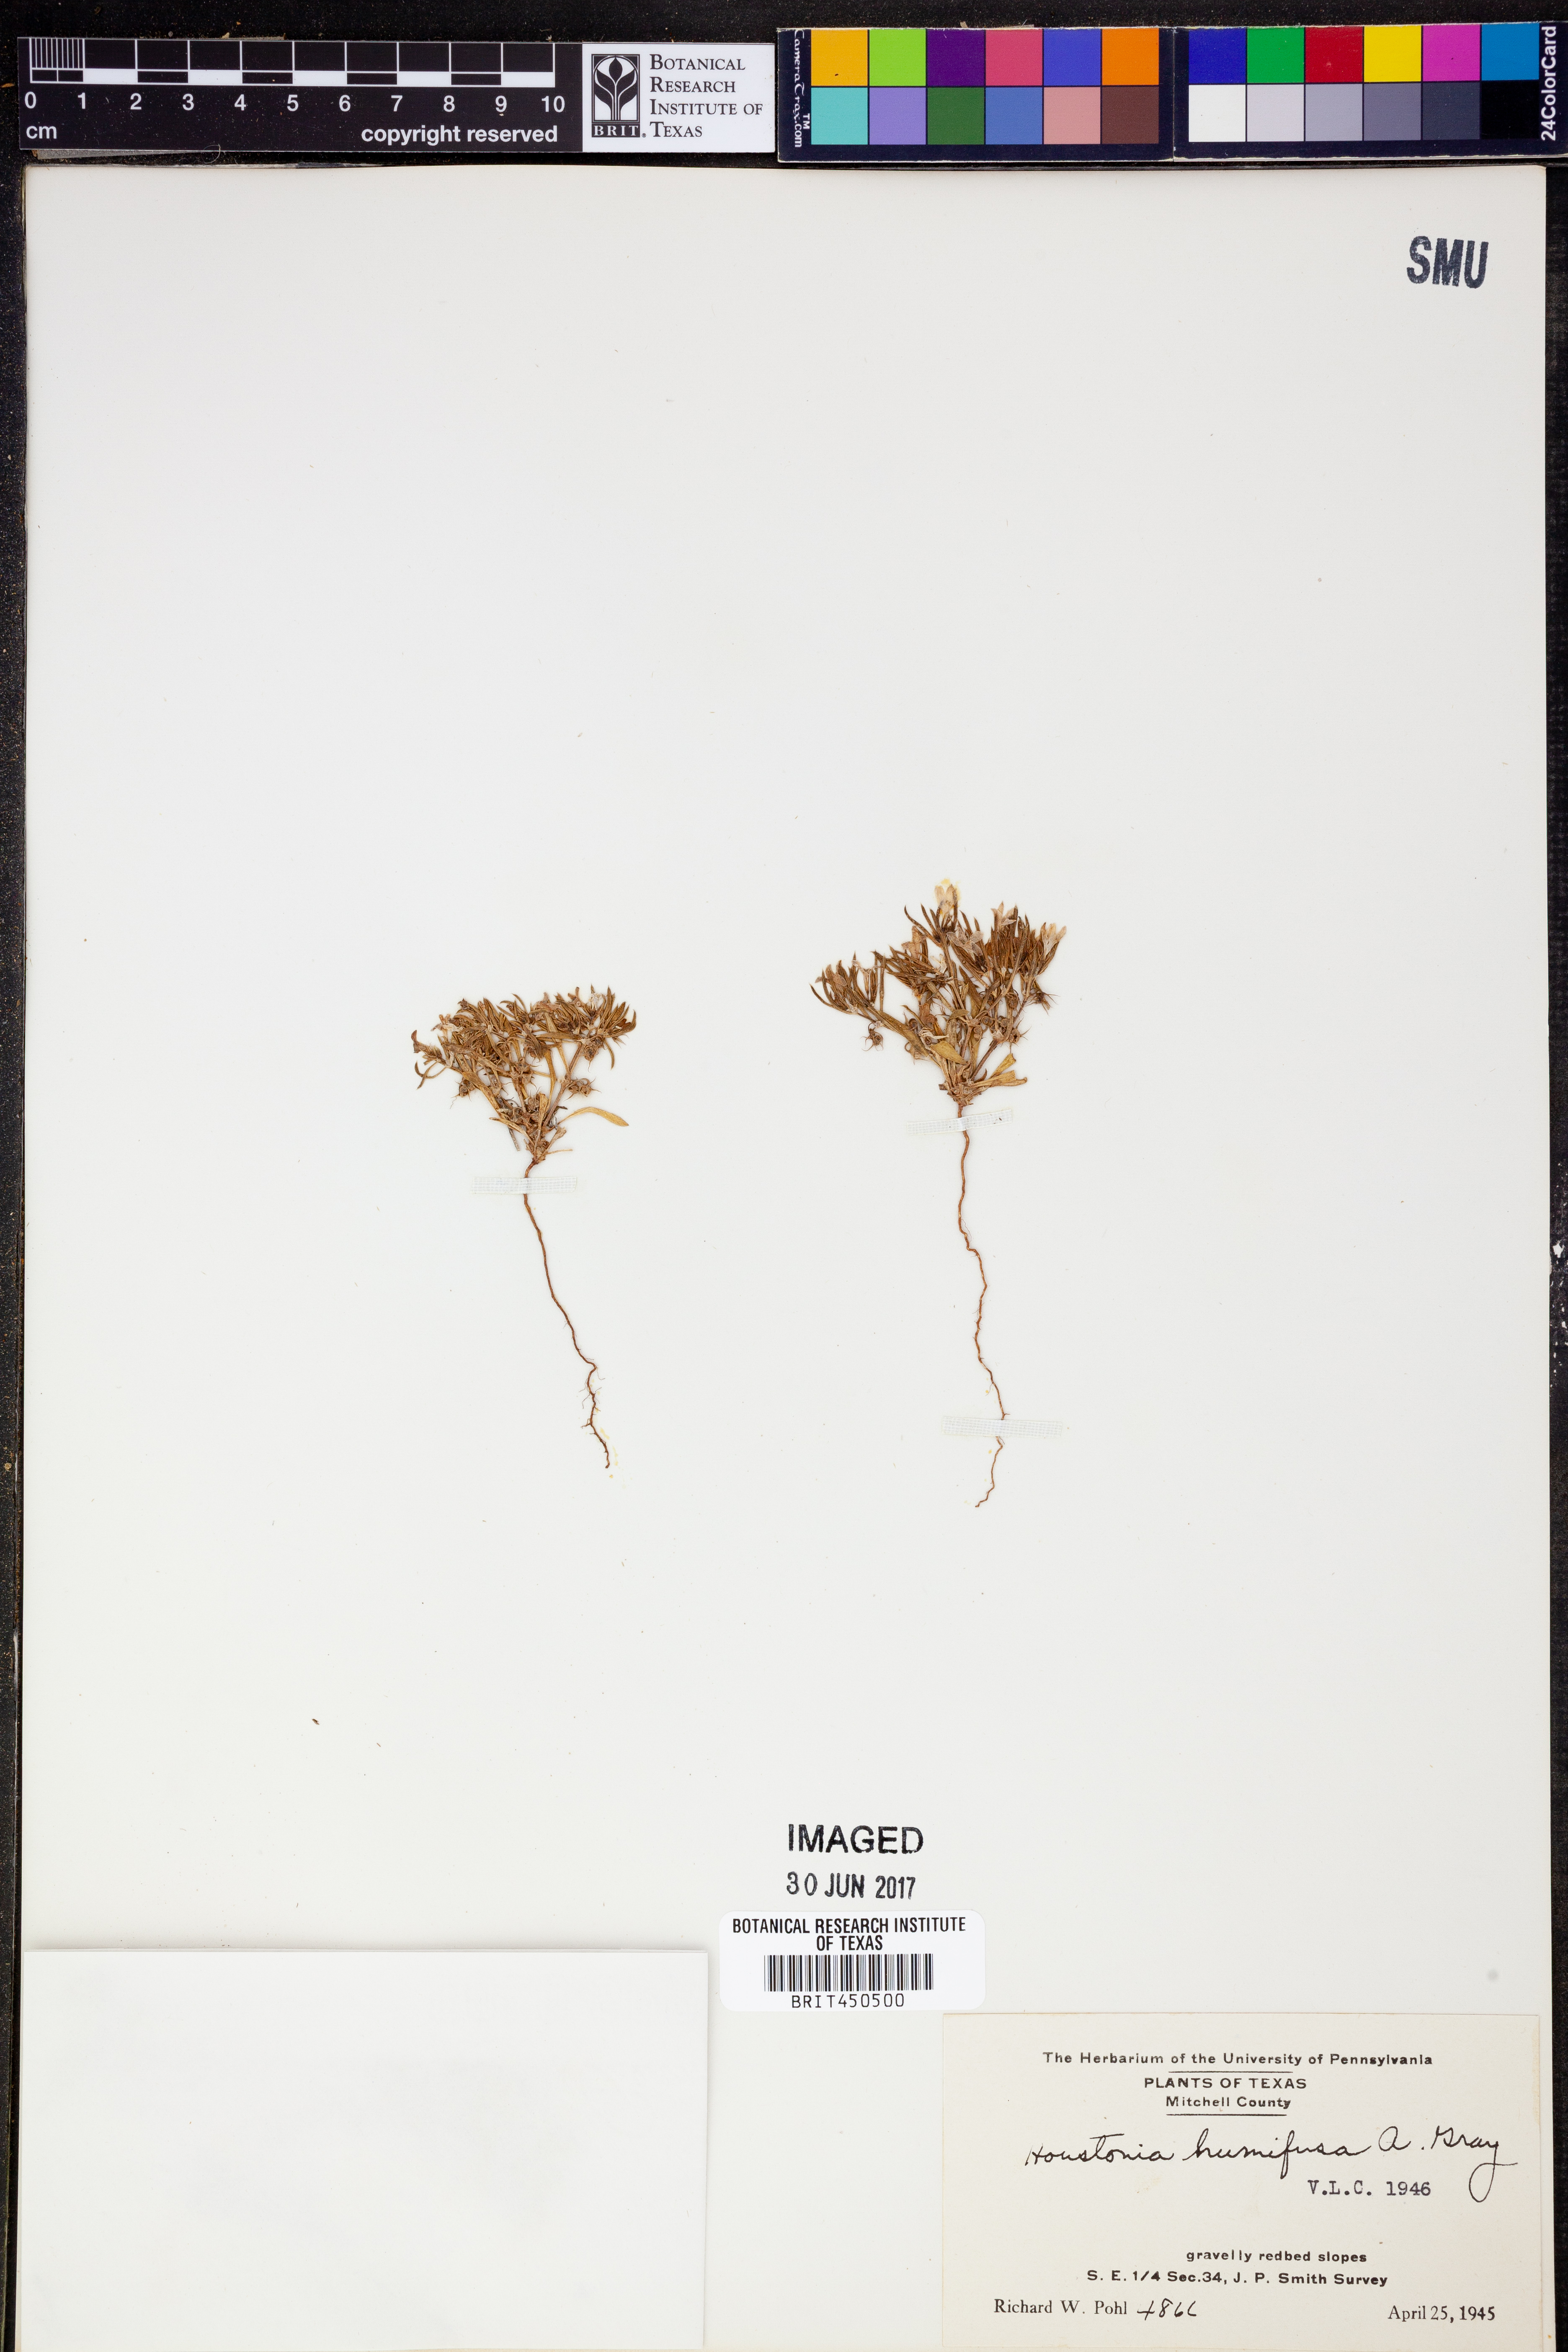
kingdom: Plantae
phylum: Tracheophyta
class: Magnoliopsida
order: Gentianales
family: Rubiaceae
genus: Houstonia
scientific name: Houstonia humifusa
